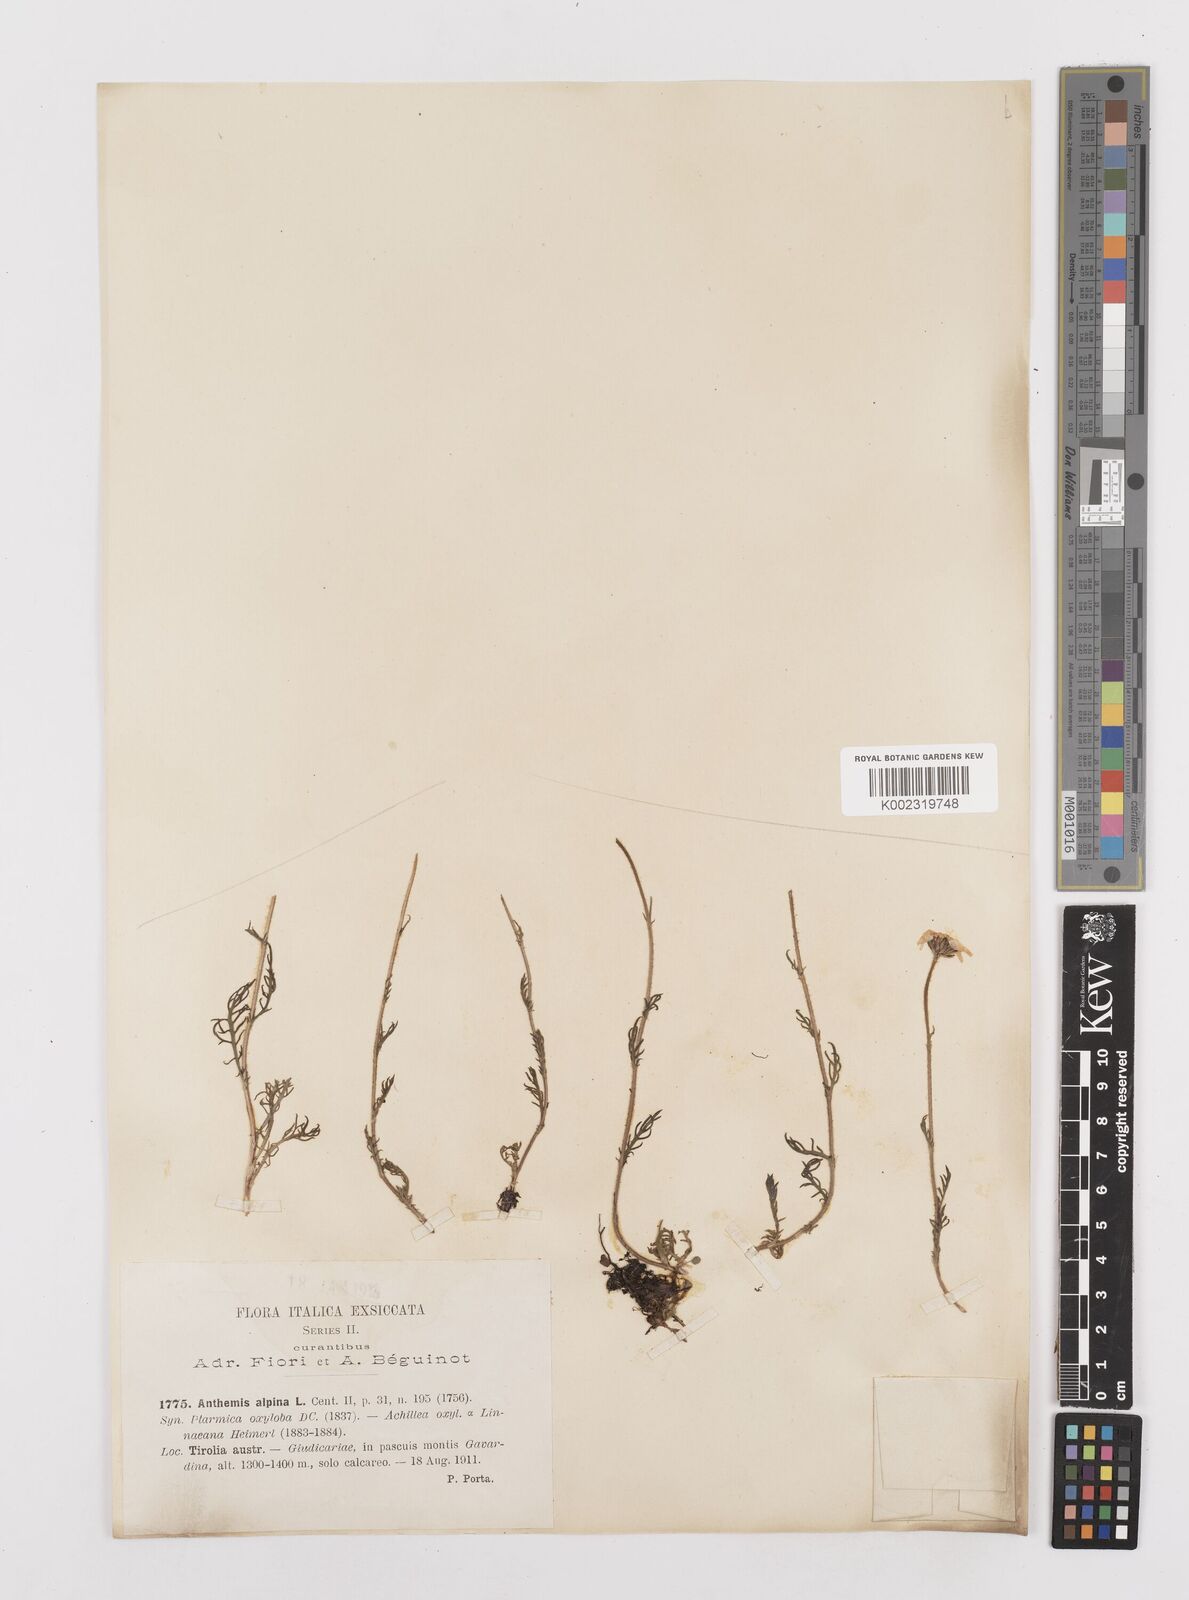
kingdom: Plantae
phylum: Tracheophyta
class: Magnoliopsida
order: Asterales
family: Asteraceae
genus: Achillea
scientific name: Achillea oxyloba
